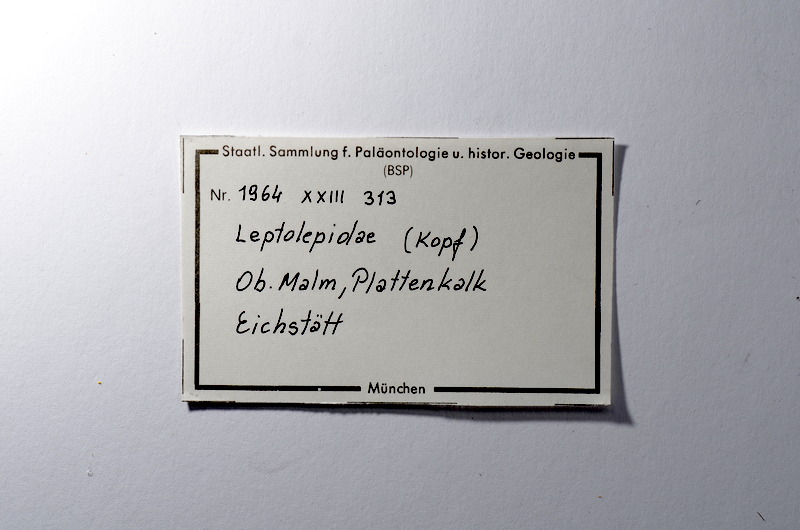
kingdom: Animalia
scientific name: Animalia
